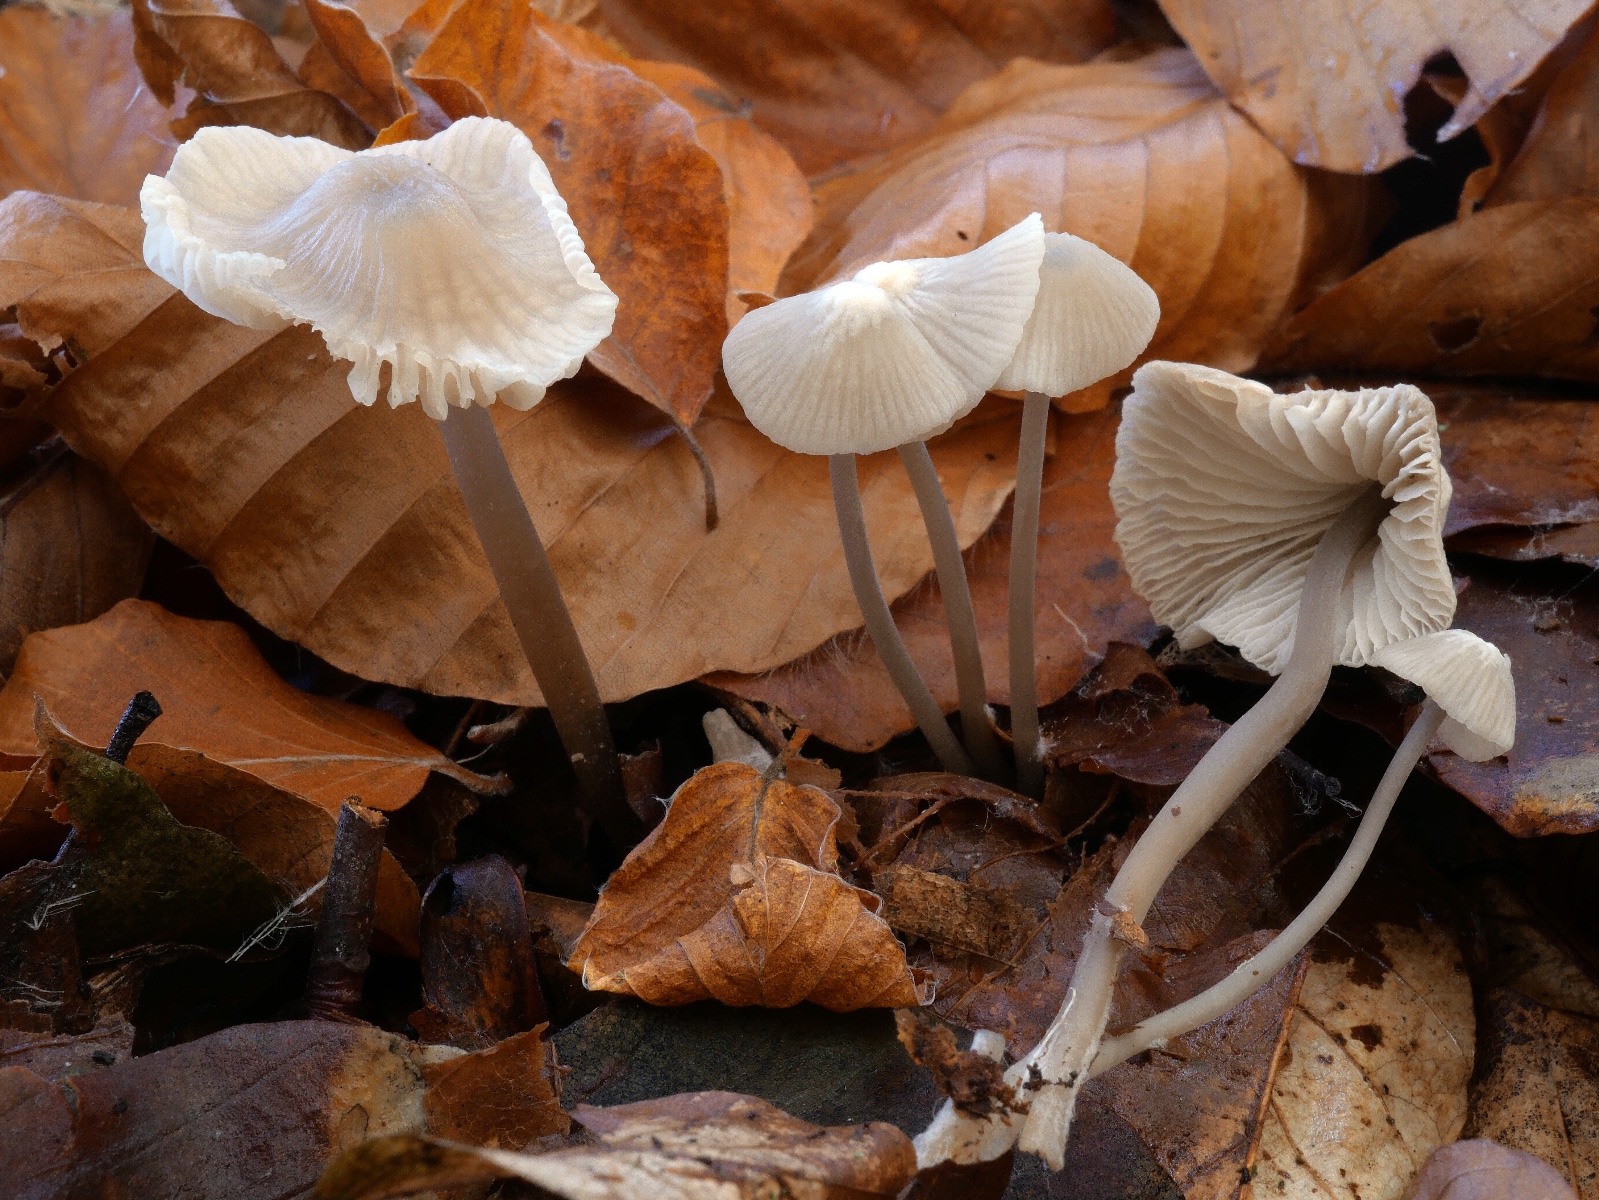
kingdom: Fungi
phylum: Basidiomycota
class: Agaricomycetes
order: Agaricales
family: Mycenaceae
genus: Mycena
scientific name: Mycena fagetorum
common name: bøgeløv-huesvamp
